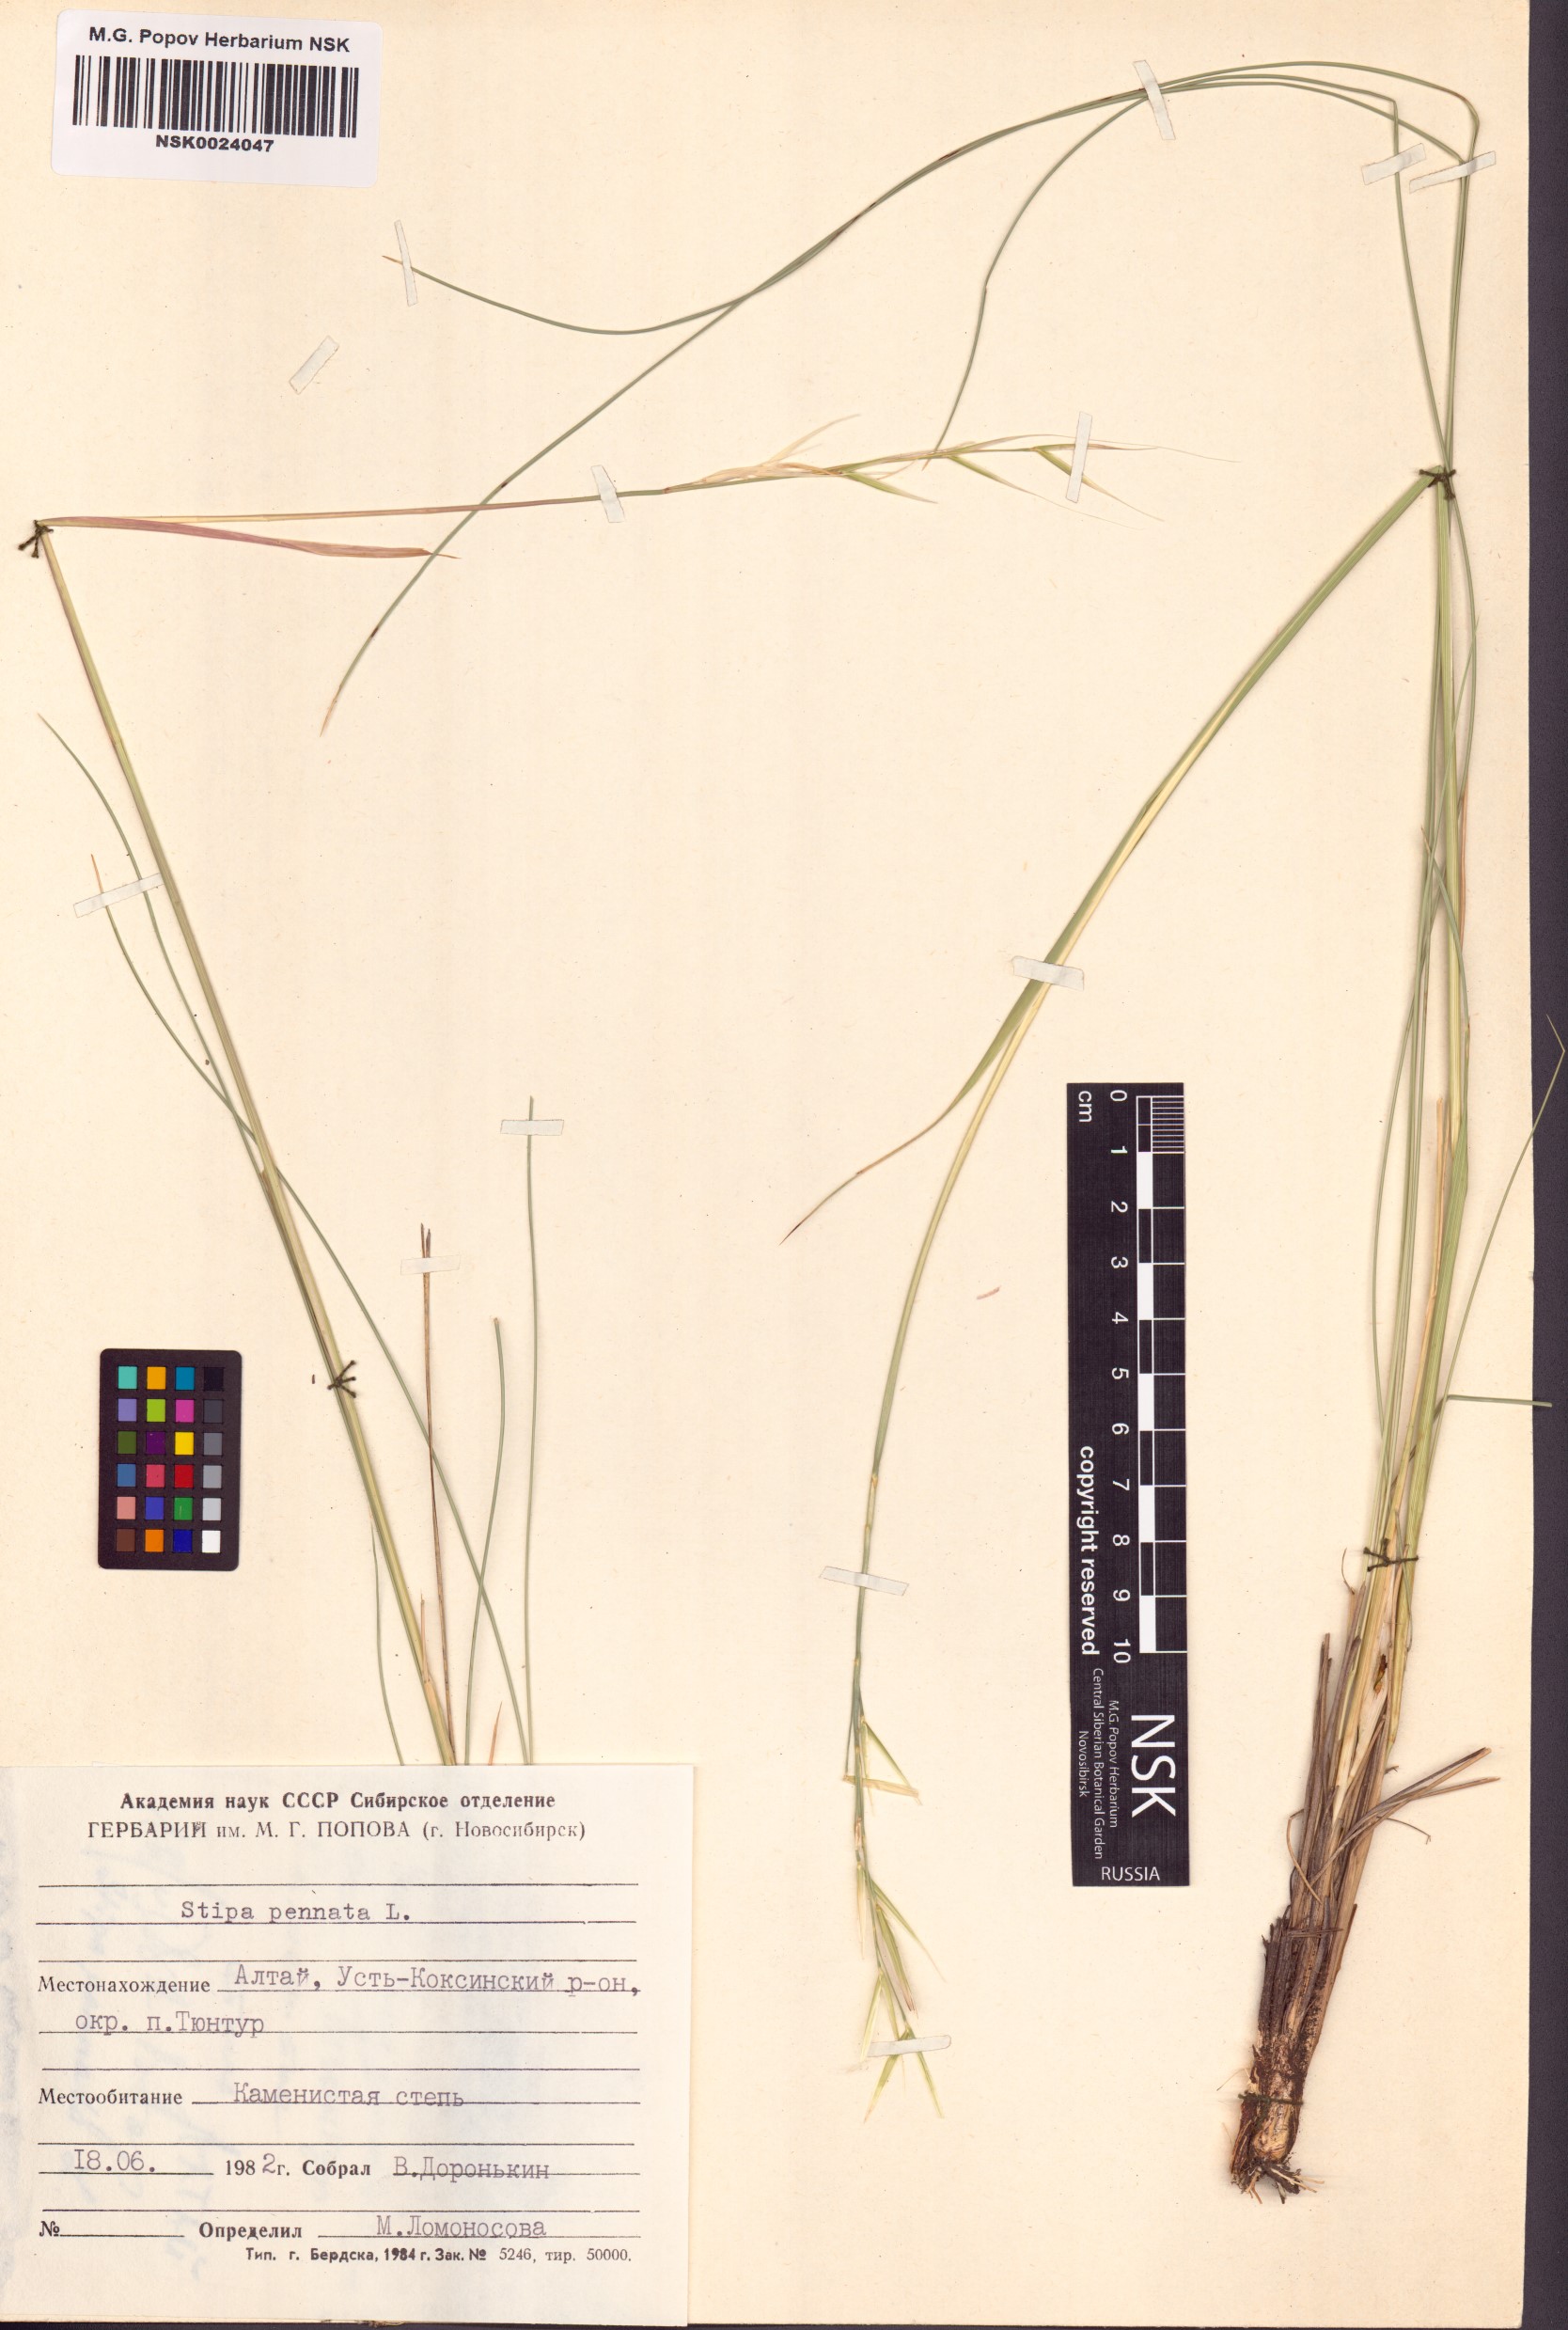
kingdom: Plantae
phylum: Tracheophyta
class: Liliopsida
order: Poales
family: Poaceae
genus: Stipa
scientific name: Stipa pennata
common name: European feather grass
